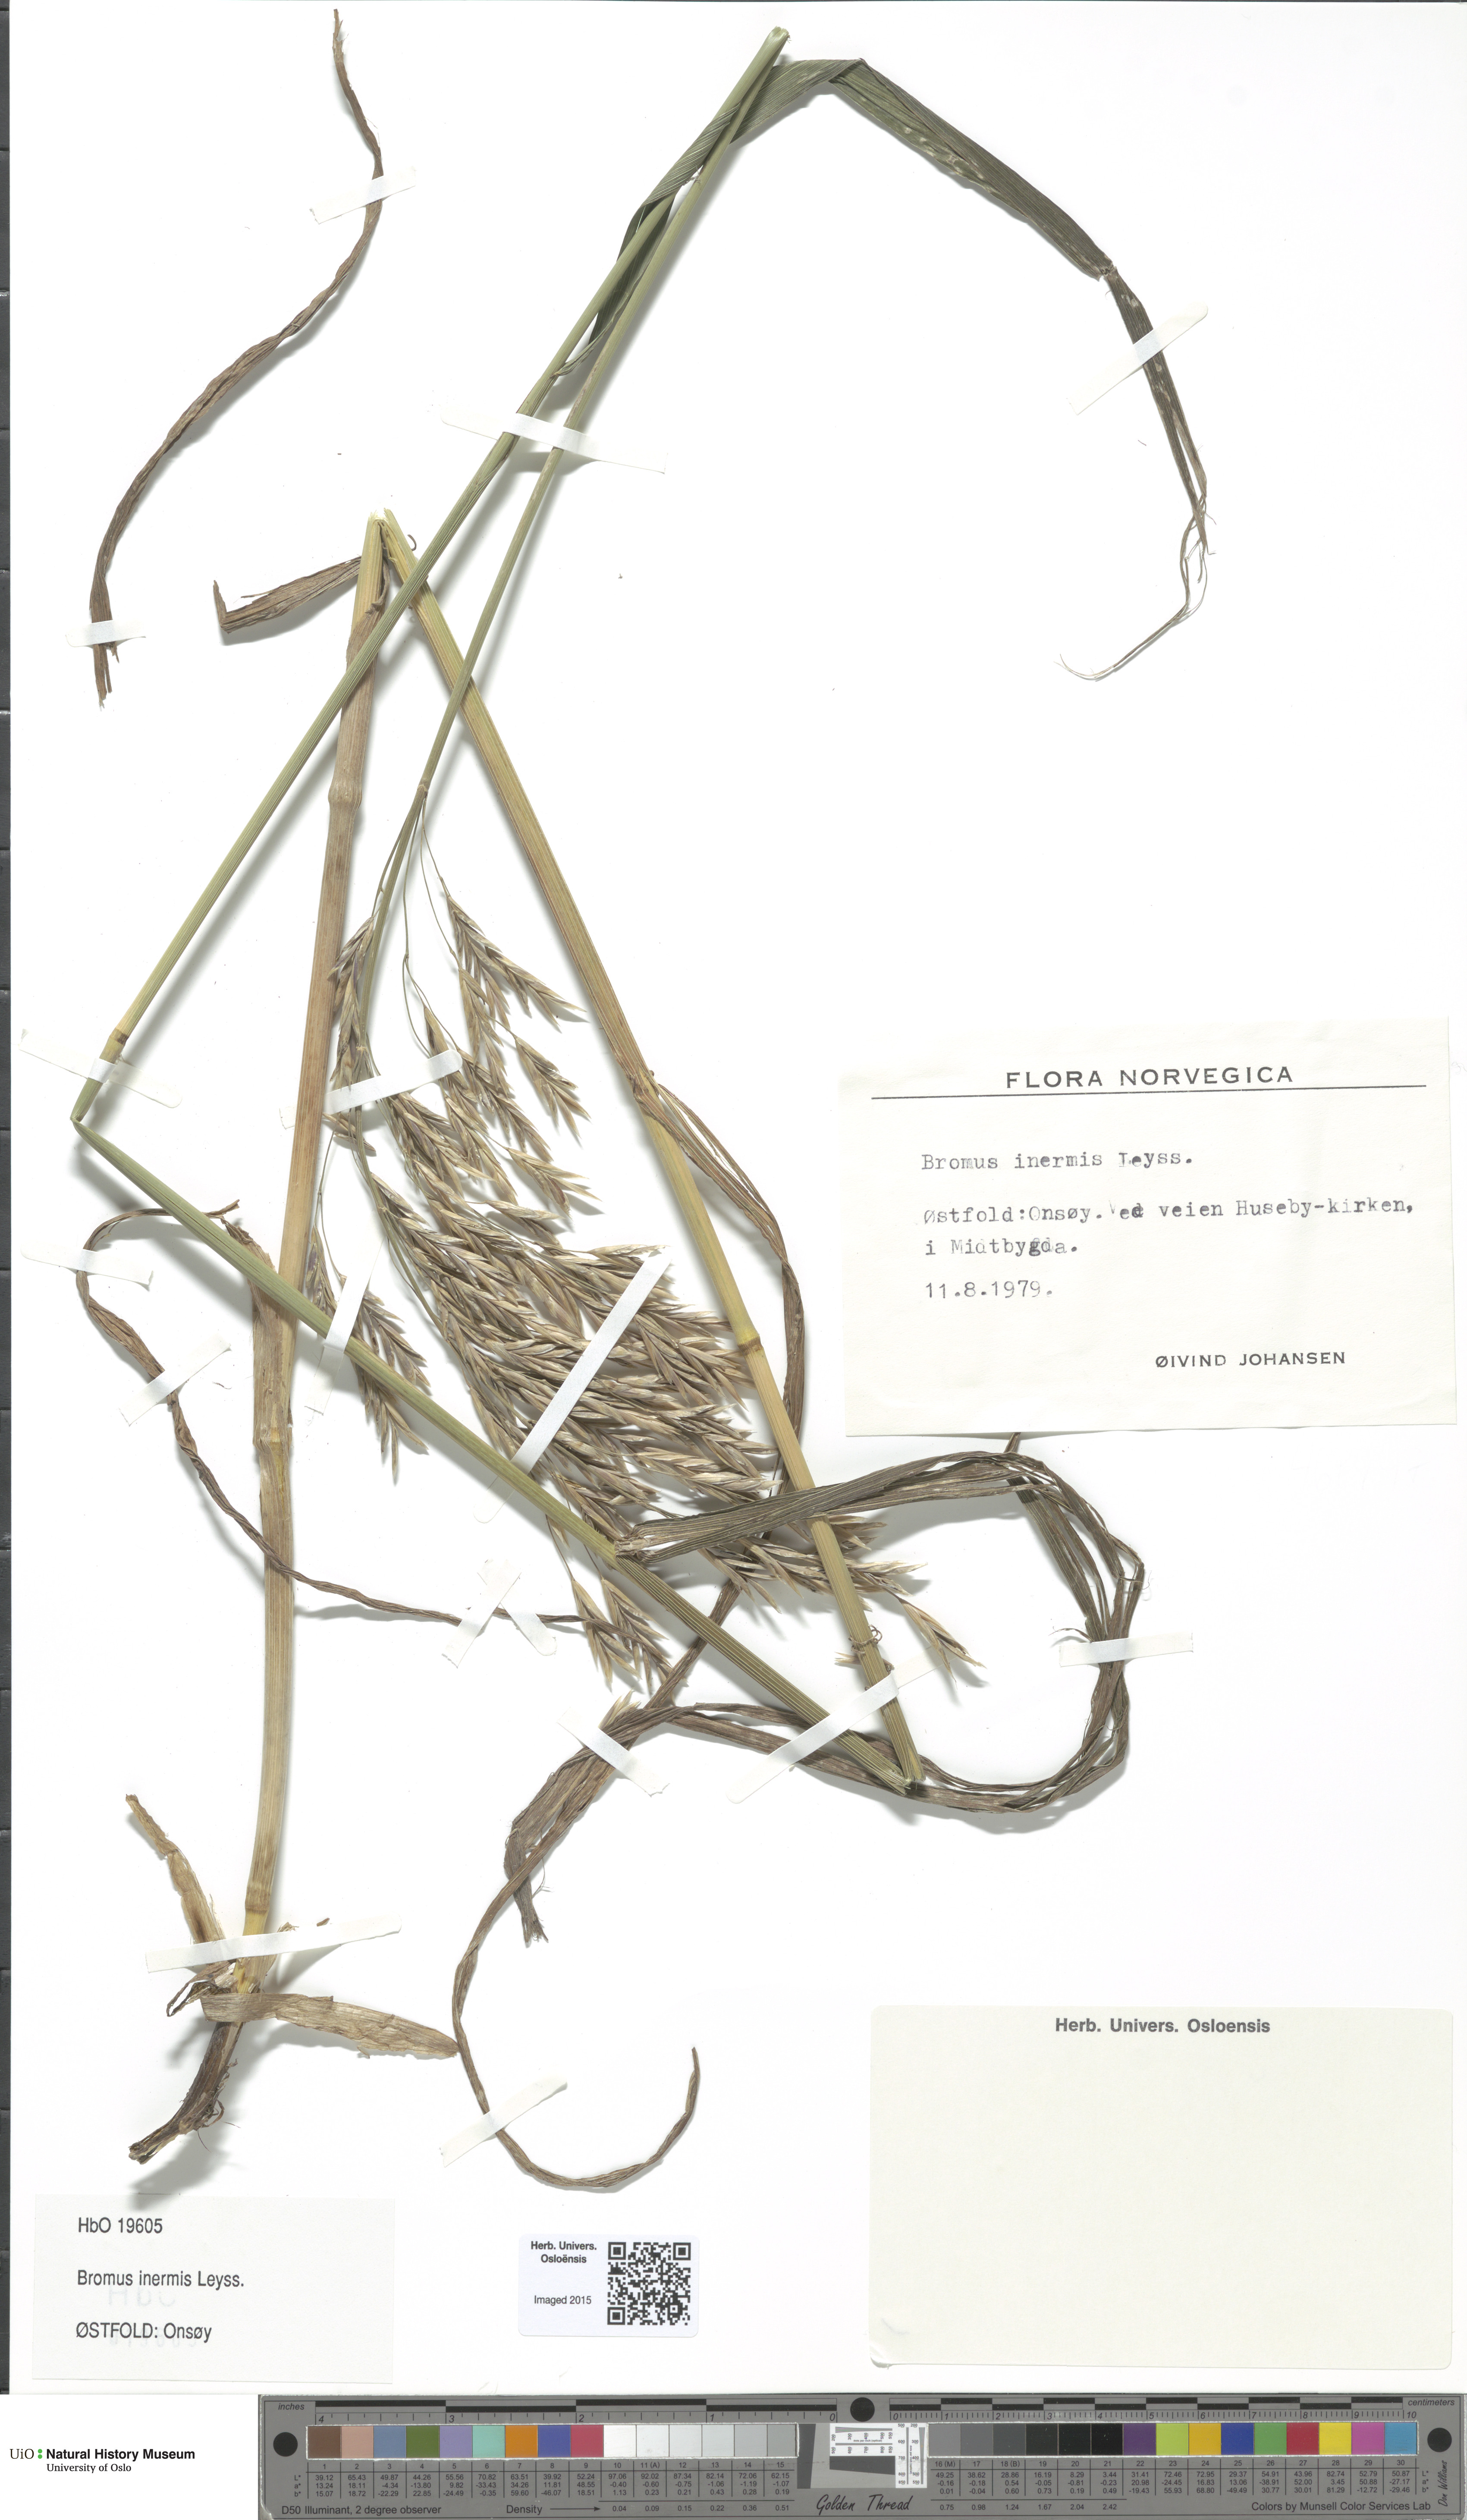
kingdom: Plantae
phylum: Tracheophyta
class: Liliopsida
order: Poales
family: Poaceae
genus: Bromus
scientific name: Bromus inermis
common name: Smooth brome
